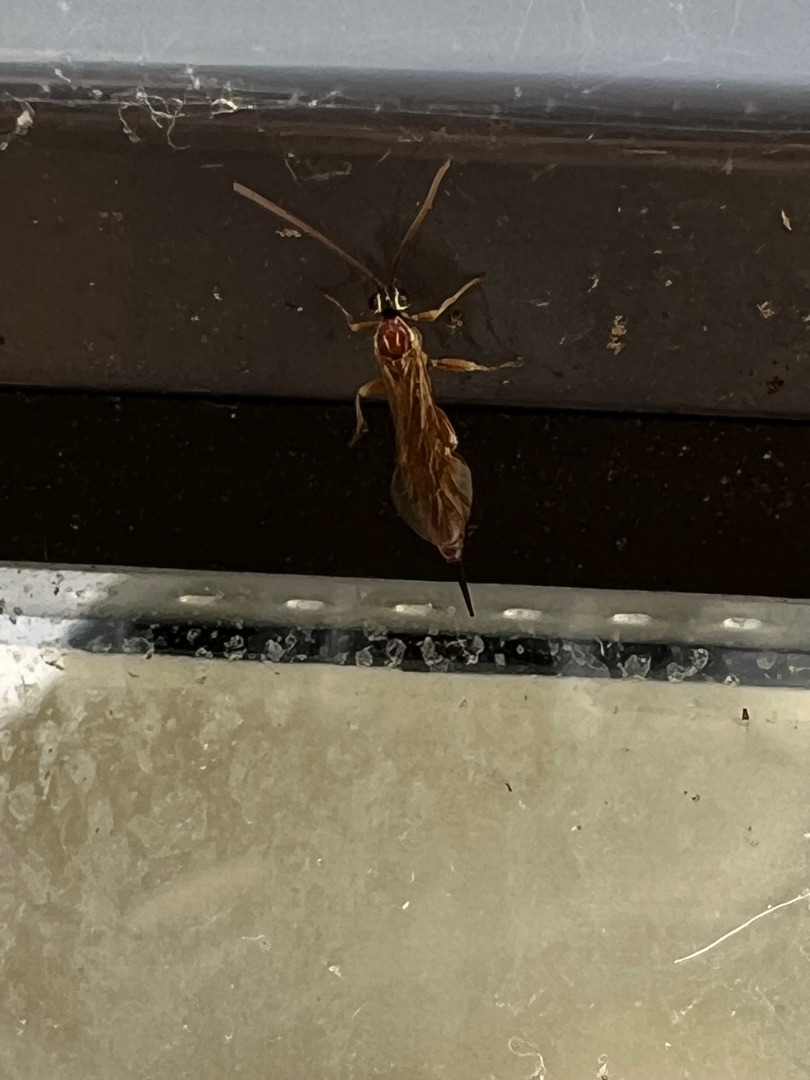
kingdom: Animalia
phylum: Arthropoda
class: Insecta
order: Hymenoptera
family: Ichneumonidae
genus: Tromatobia
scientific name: Tromatobia lineatoria
